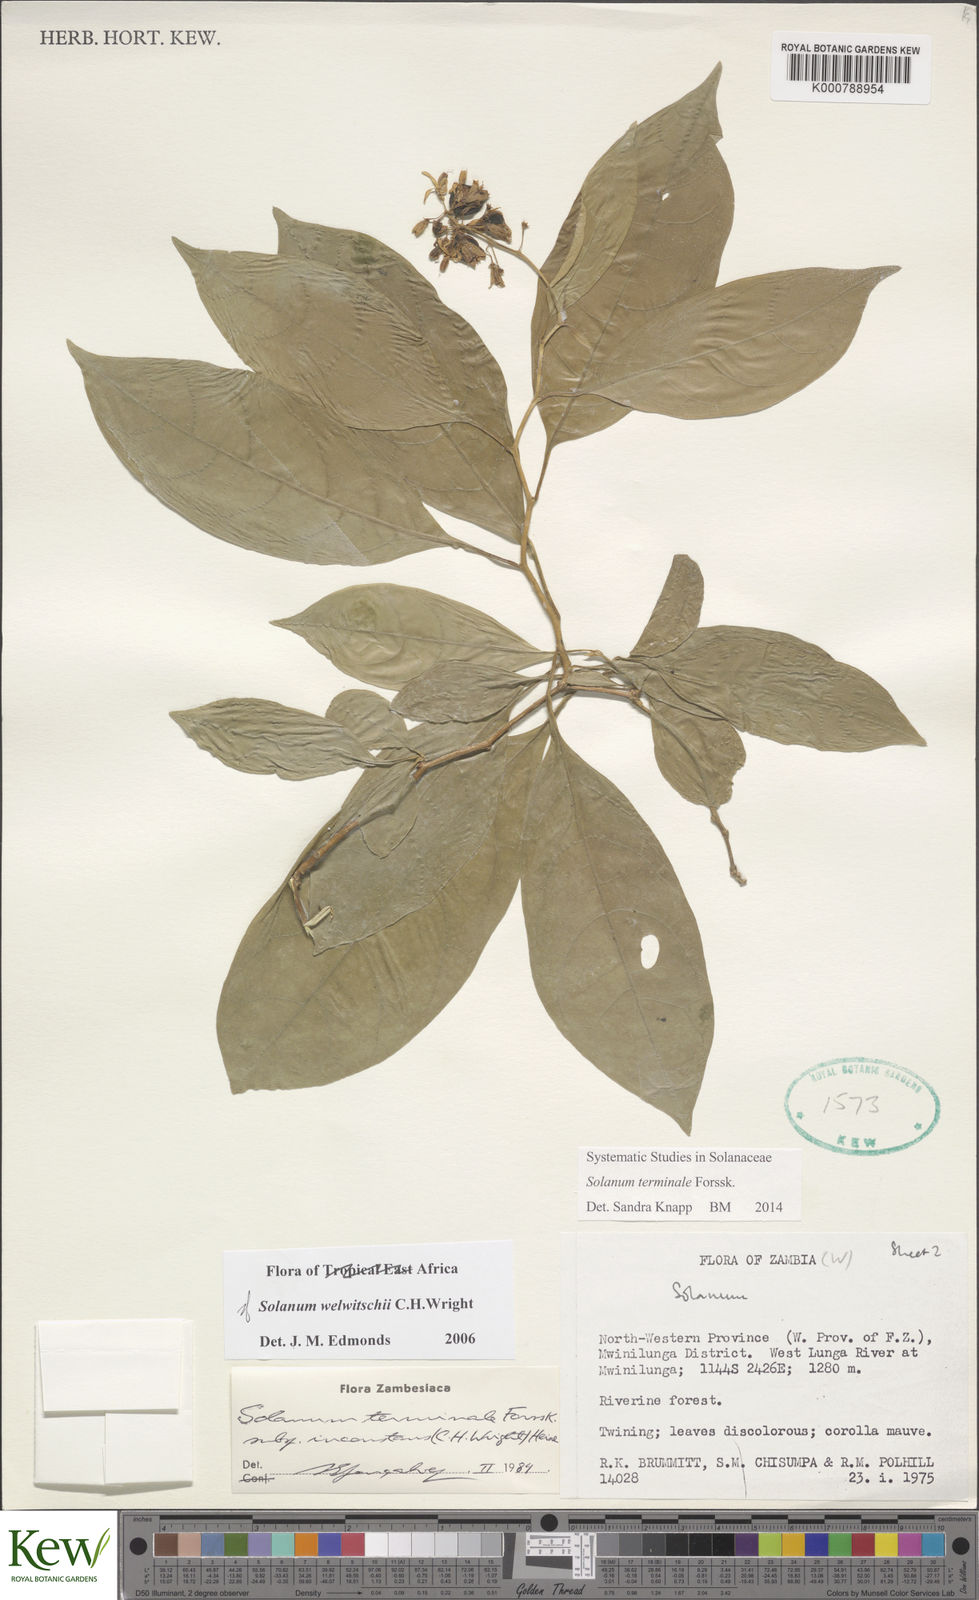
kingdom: Plantae
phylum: Tracheophyta
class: Magnoliopsida
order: Solanales
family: Solanaceae
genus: Solanum
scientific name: Solanum terminale
